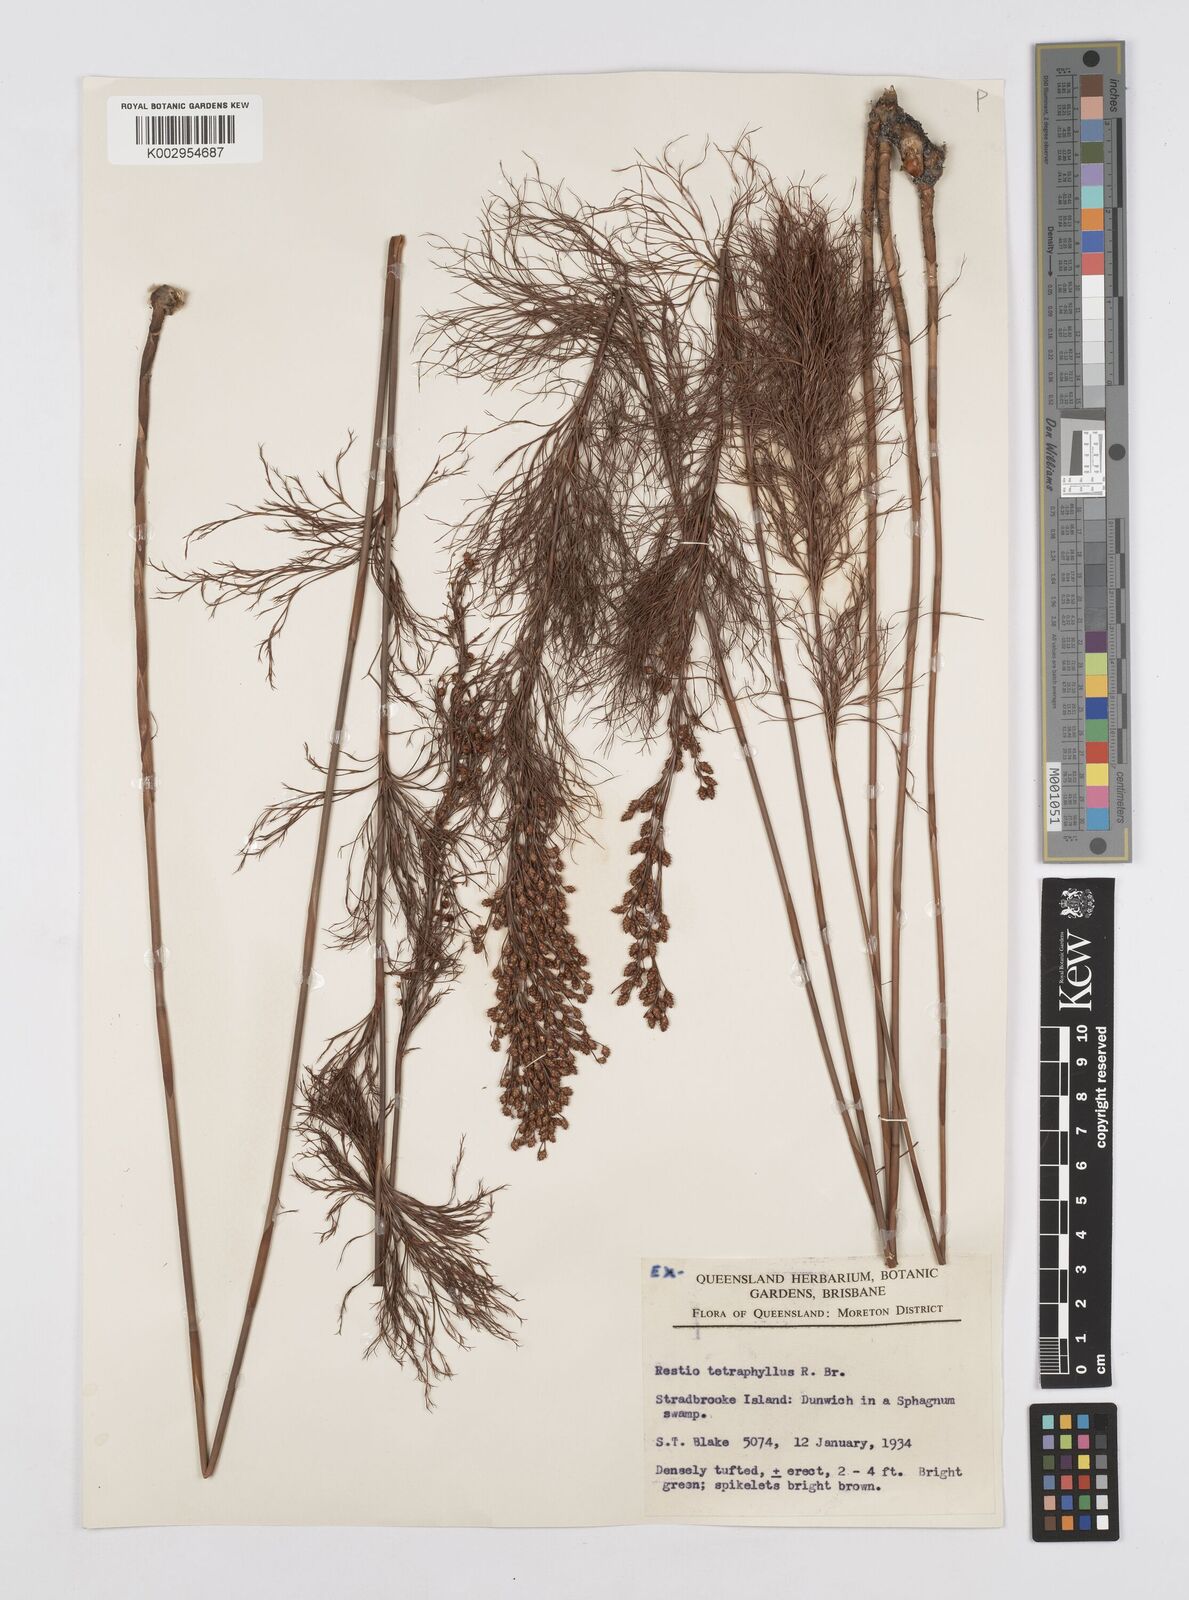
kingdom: Plantae
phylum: Tracheophyta
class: Liliopsida
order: Poales
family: Restionaceae
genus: Baloskion
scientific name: Baloskion tetraphyllum
